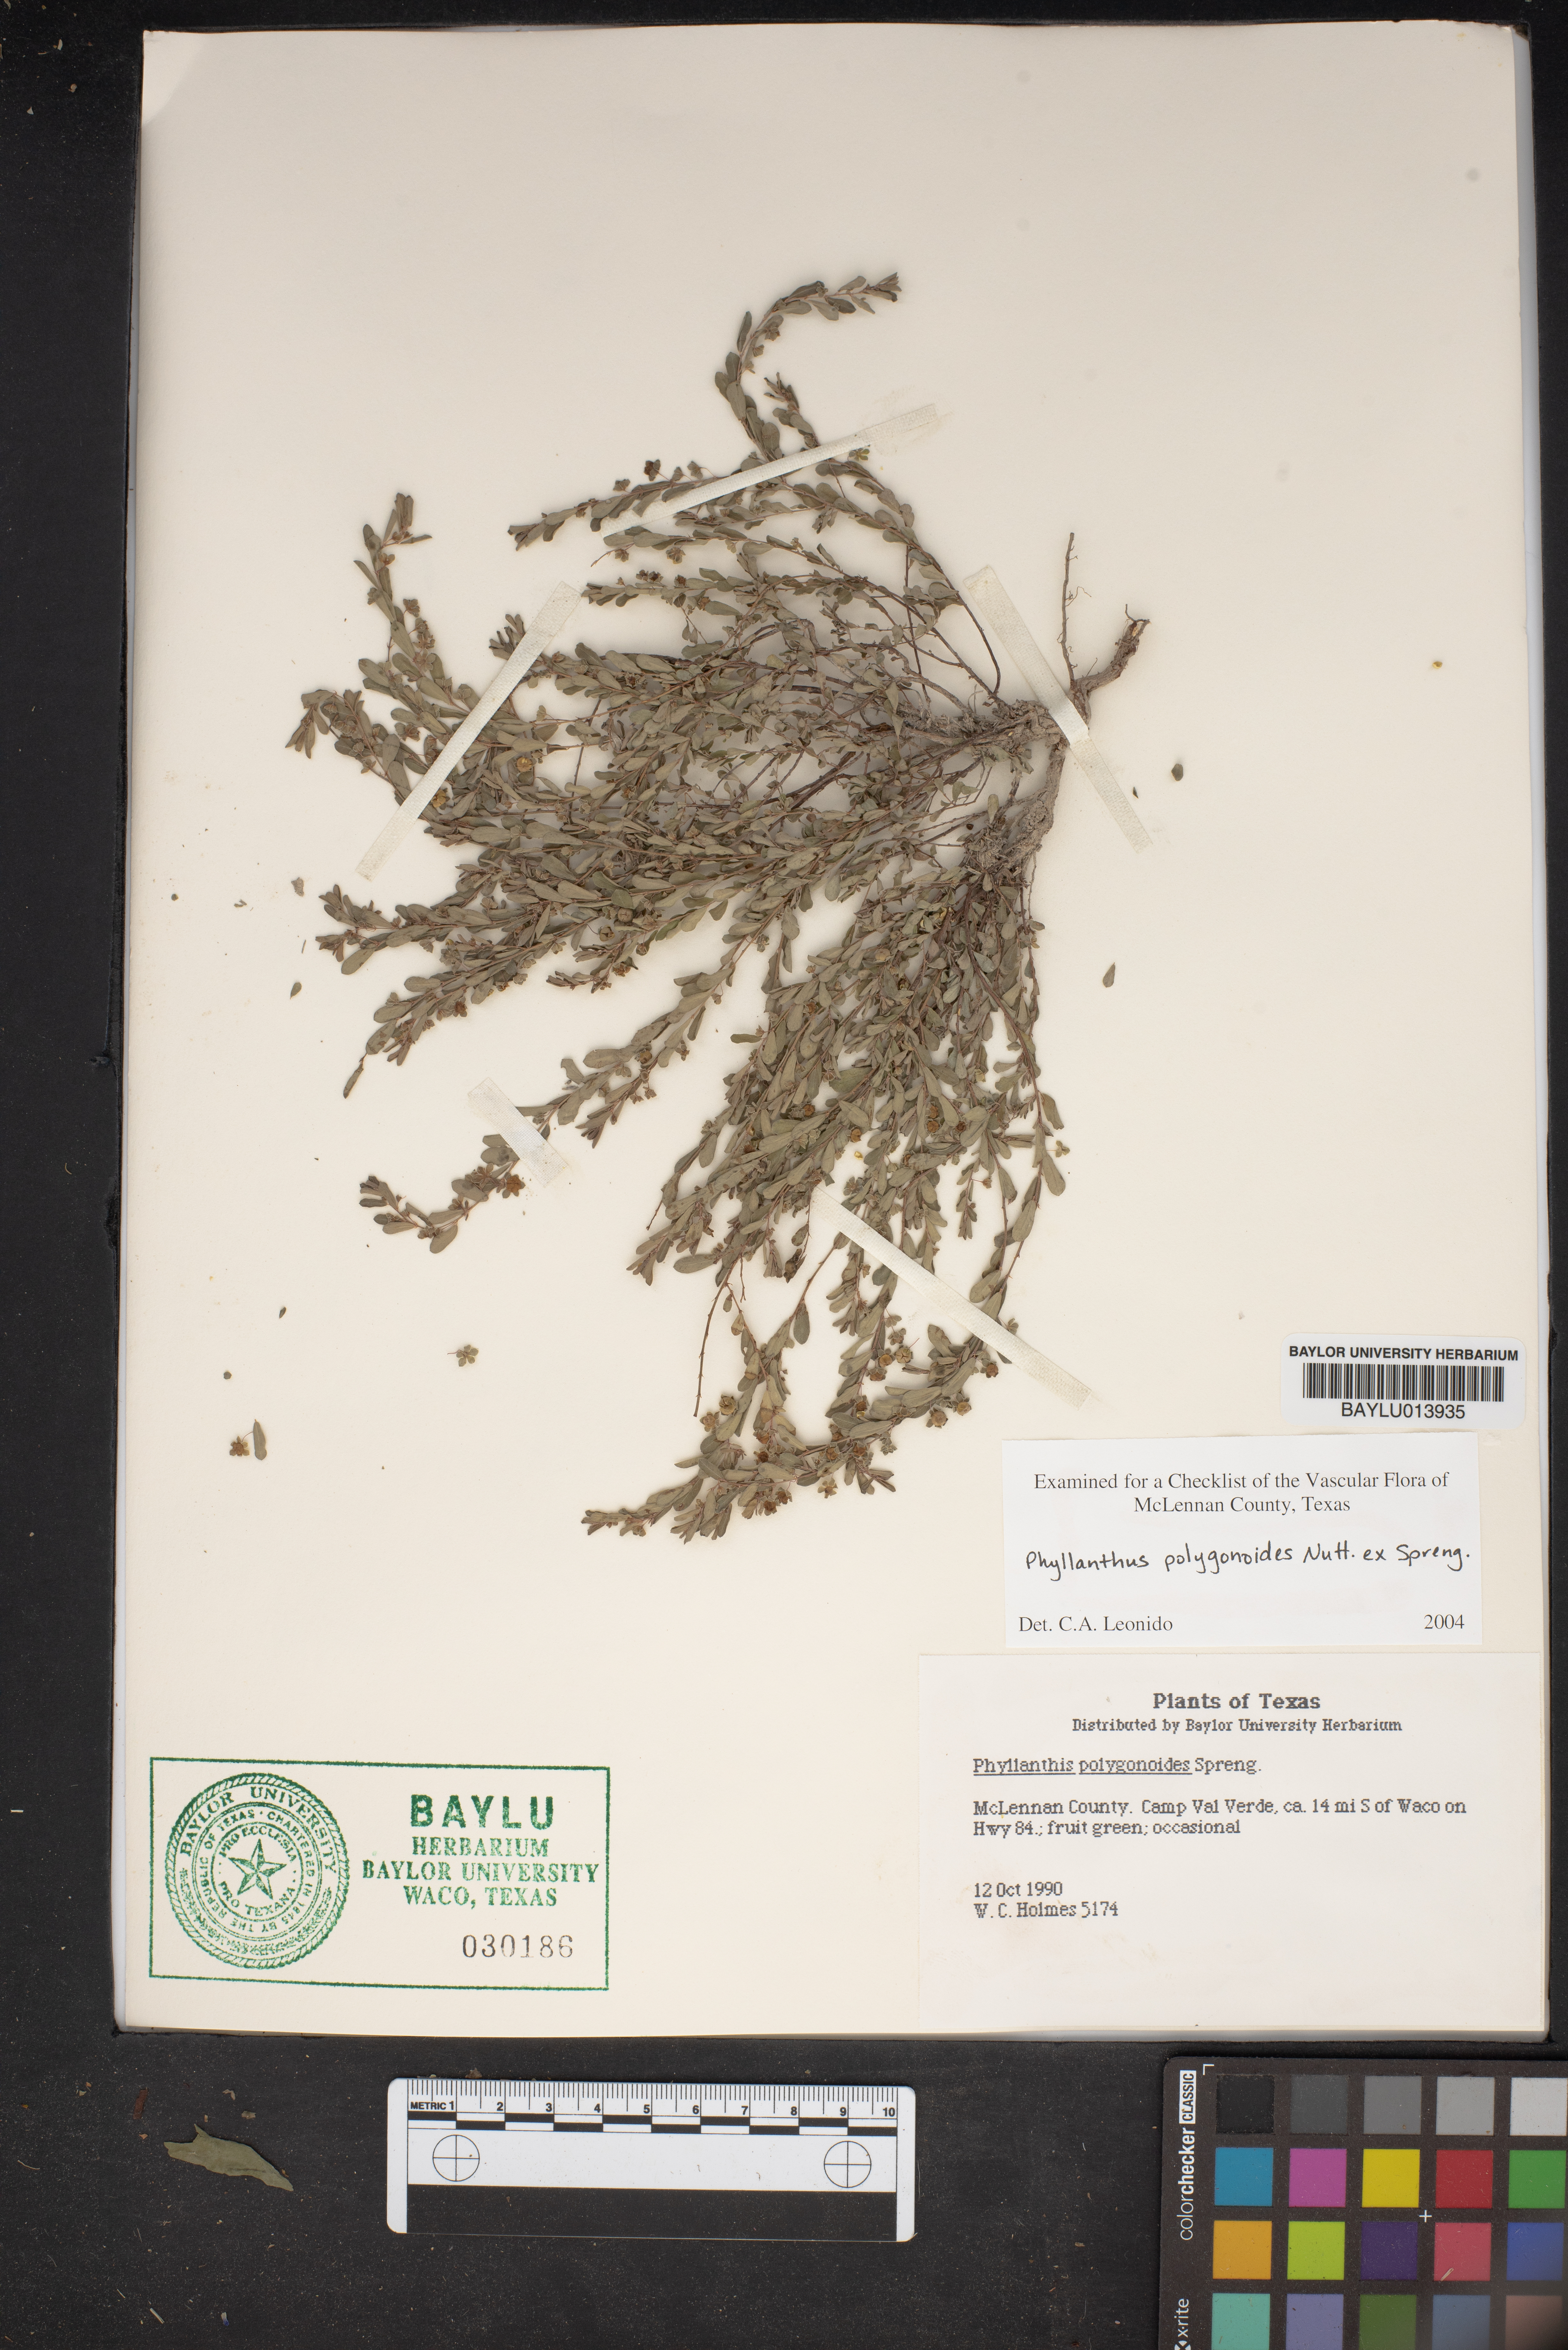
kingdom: Plantae
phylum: Tracheophyta
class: Magnoliopsida
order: Malpighiales
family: Phyllanthaceae
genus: Phyllanthus
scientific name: Phyllanthus polygonoides
